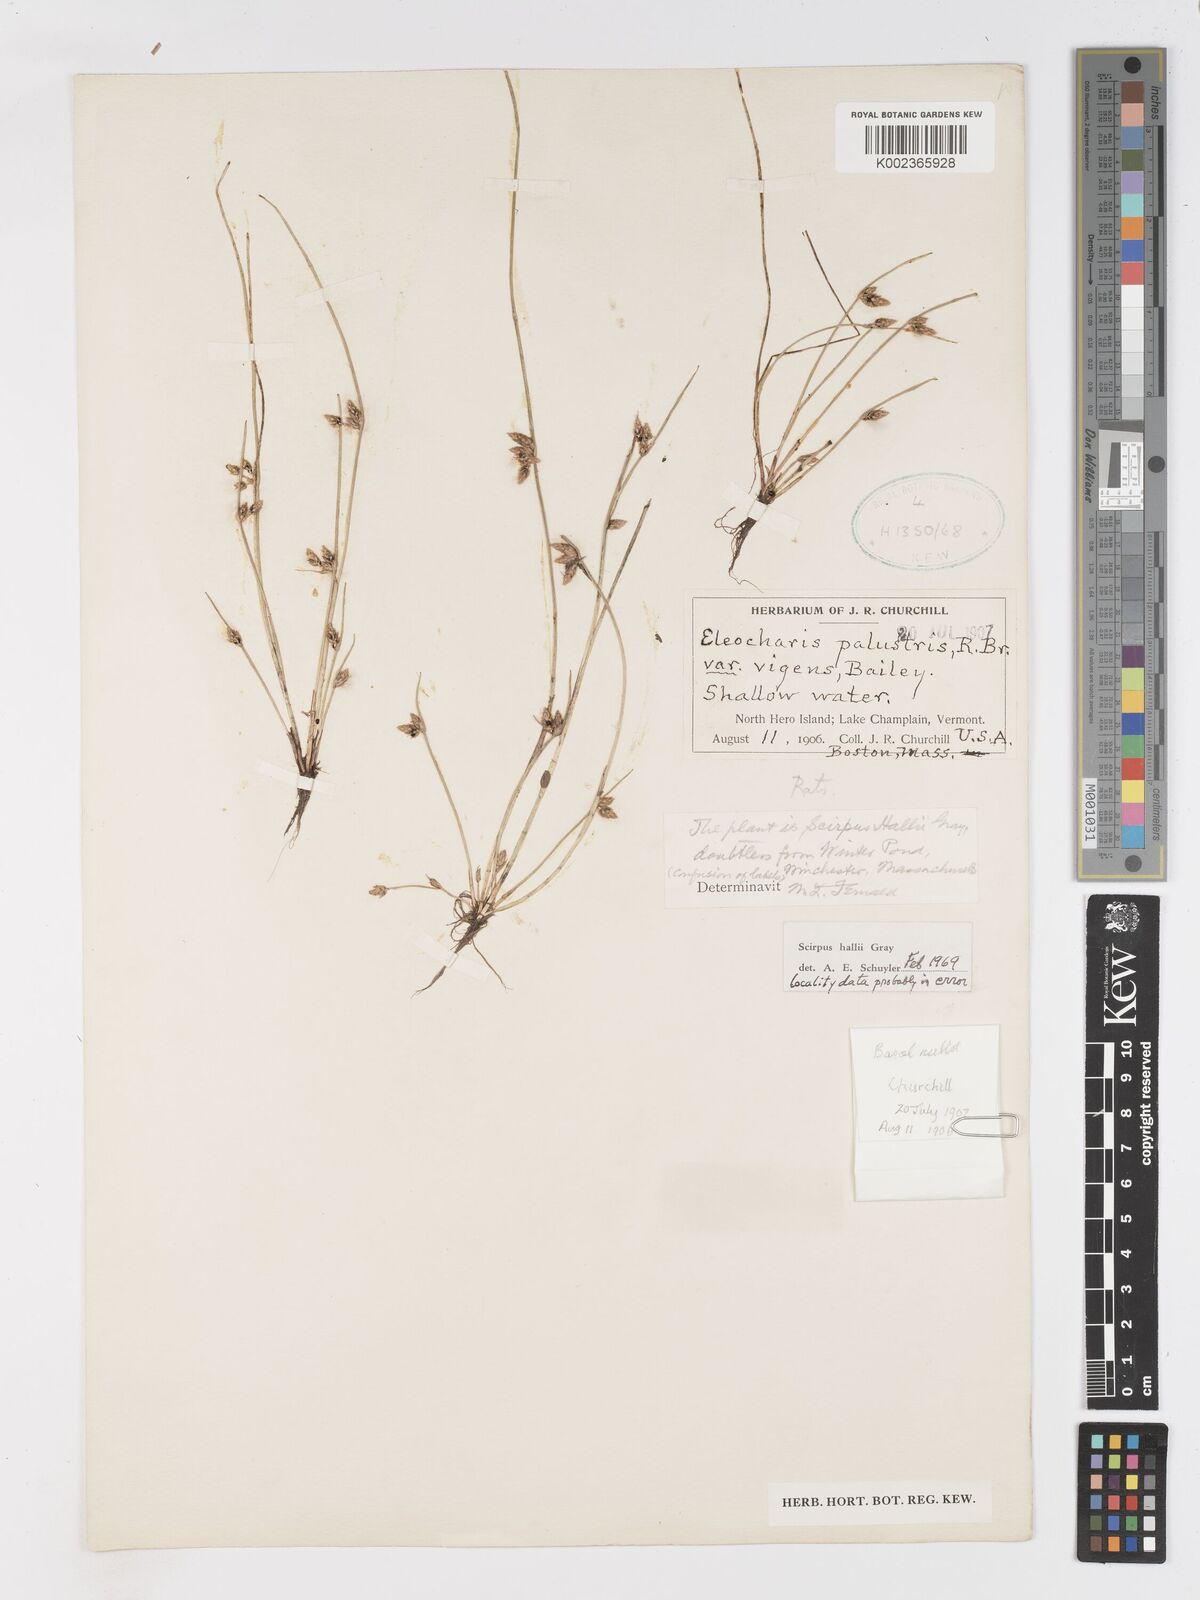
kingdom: Plantae
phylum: Tracheophyta
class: Liliopsida
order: Poales
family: Cyperaceae
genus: Schoenoplectiella
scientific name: Schoenoplectiella hallii
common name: Hall's bullrush
